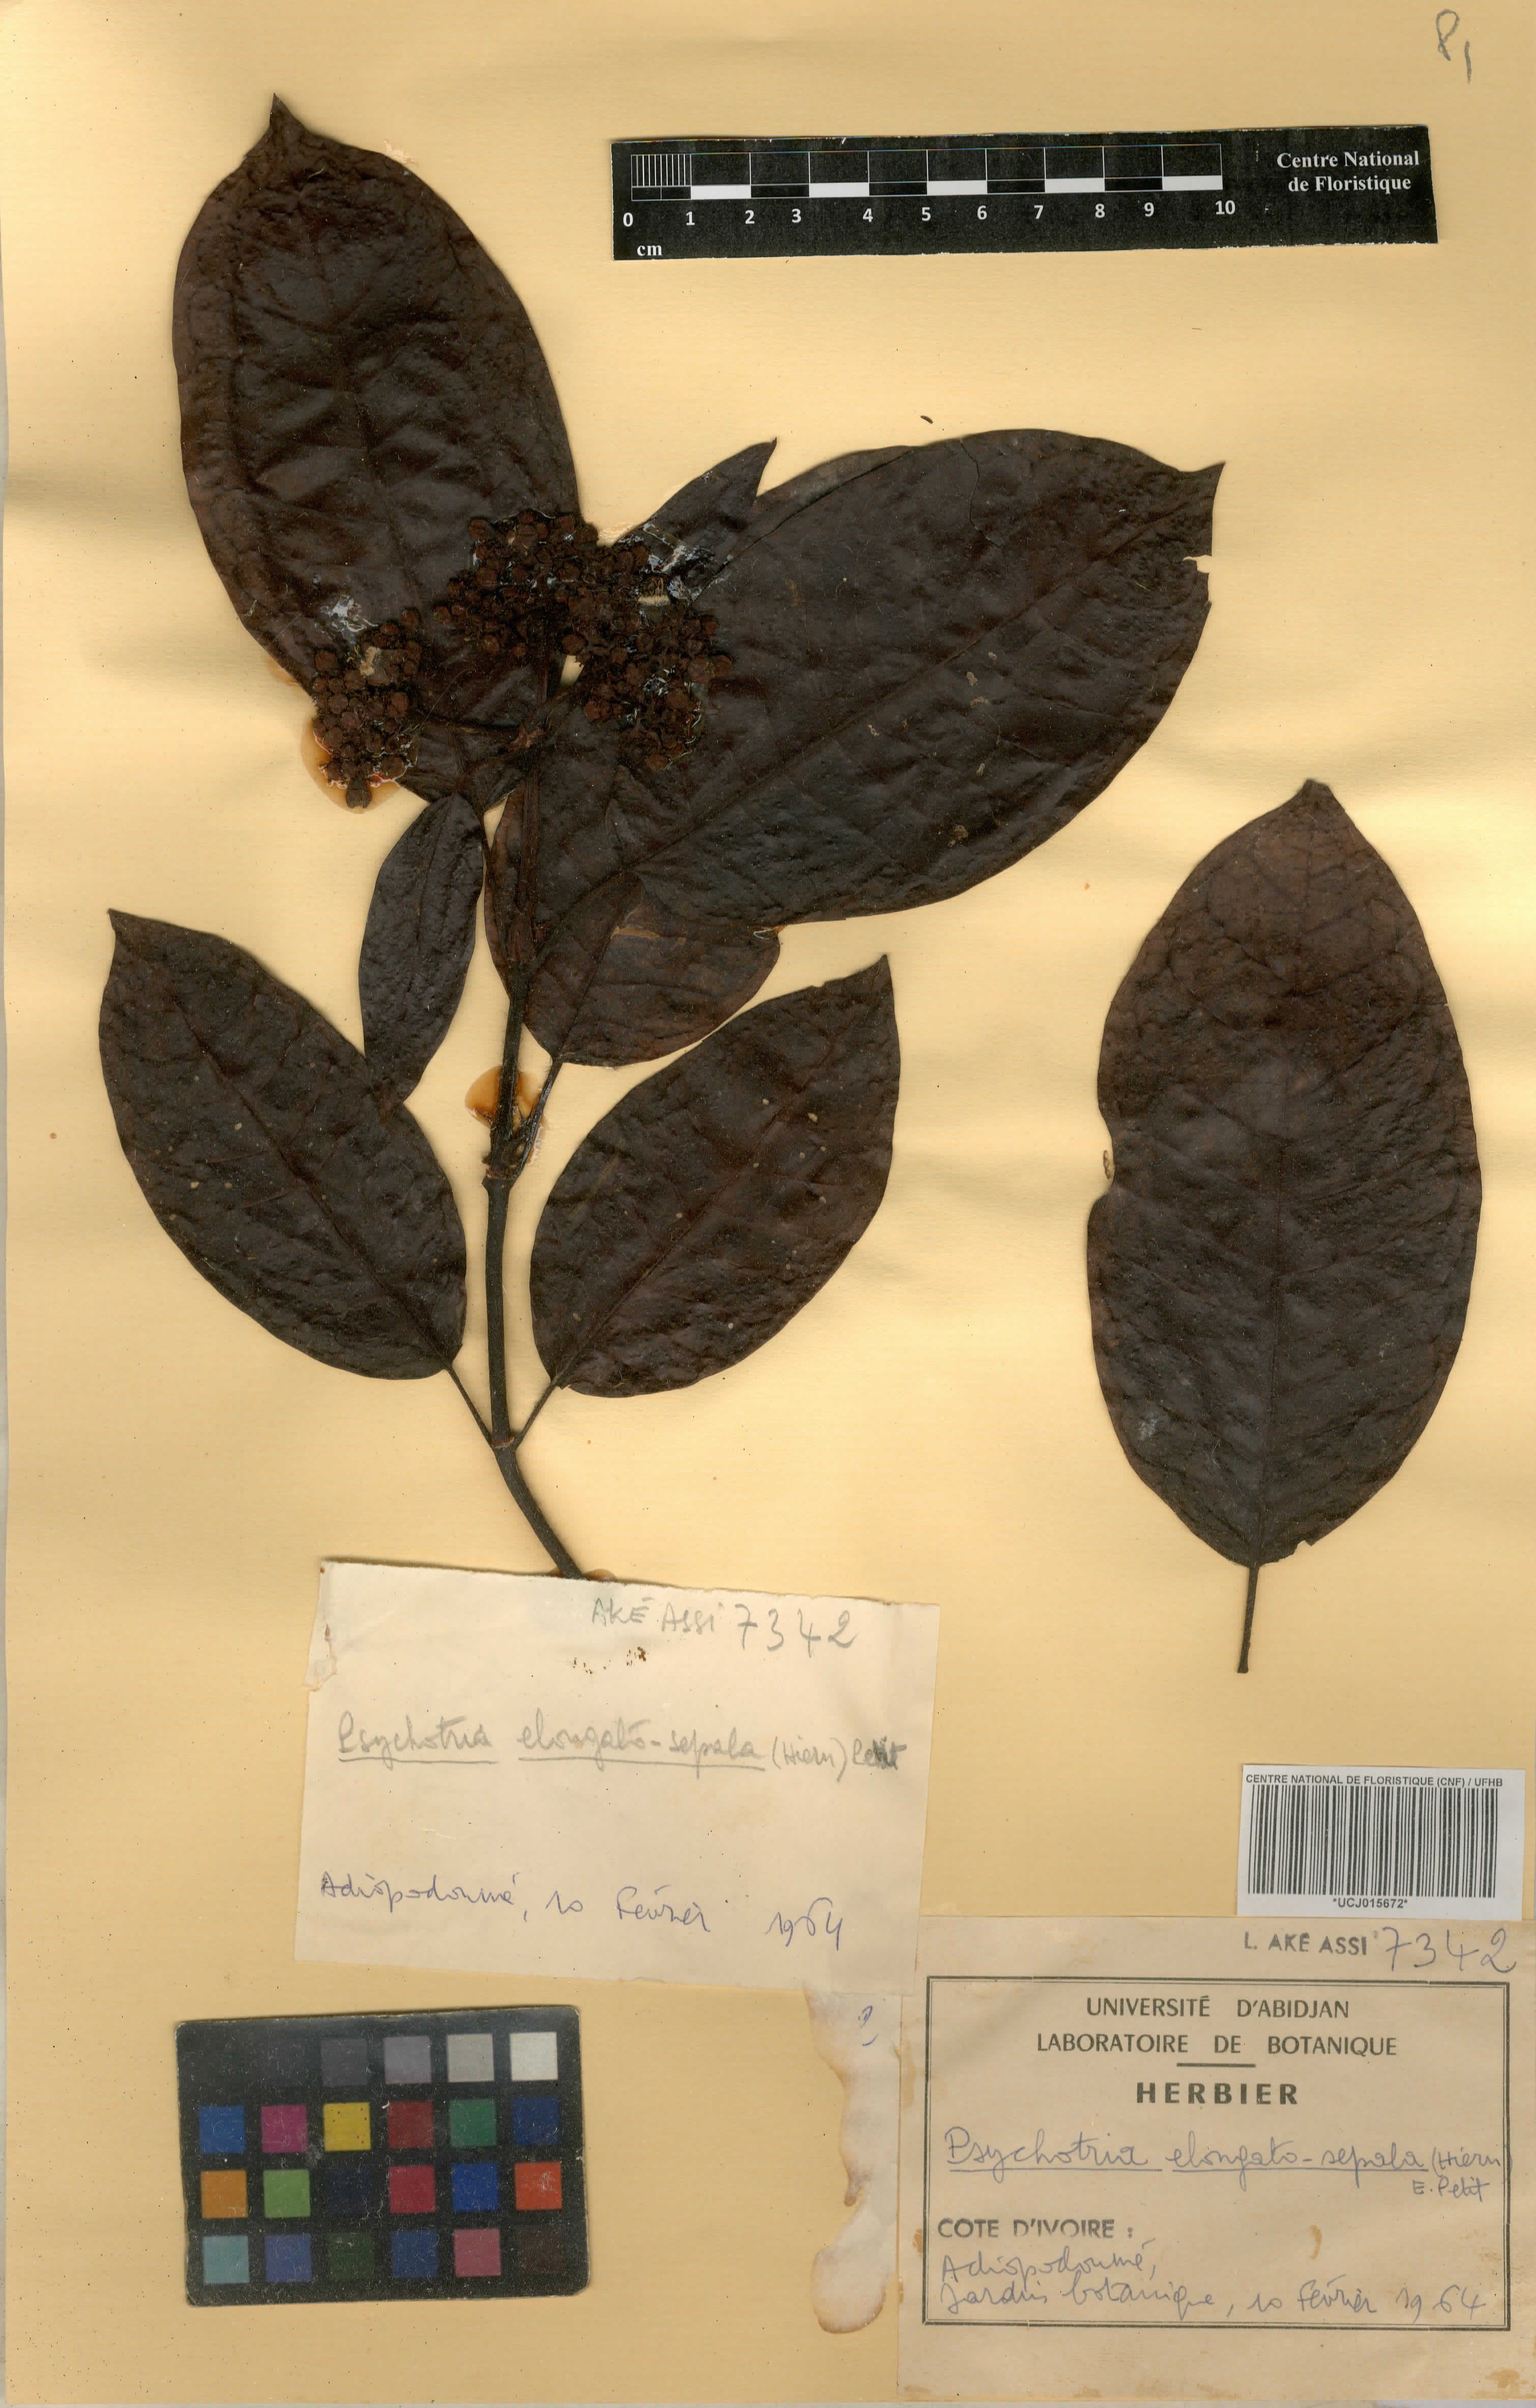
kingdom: Plantae
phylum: Tracheophyta
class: Magnoliopsida
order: Gentianales
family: Rubiaceae
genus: Psychotria
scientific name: Psychotria elongatosepala
